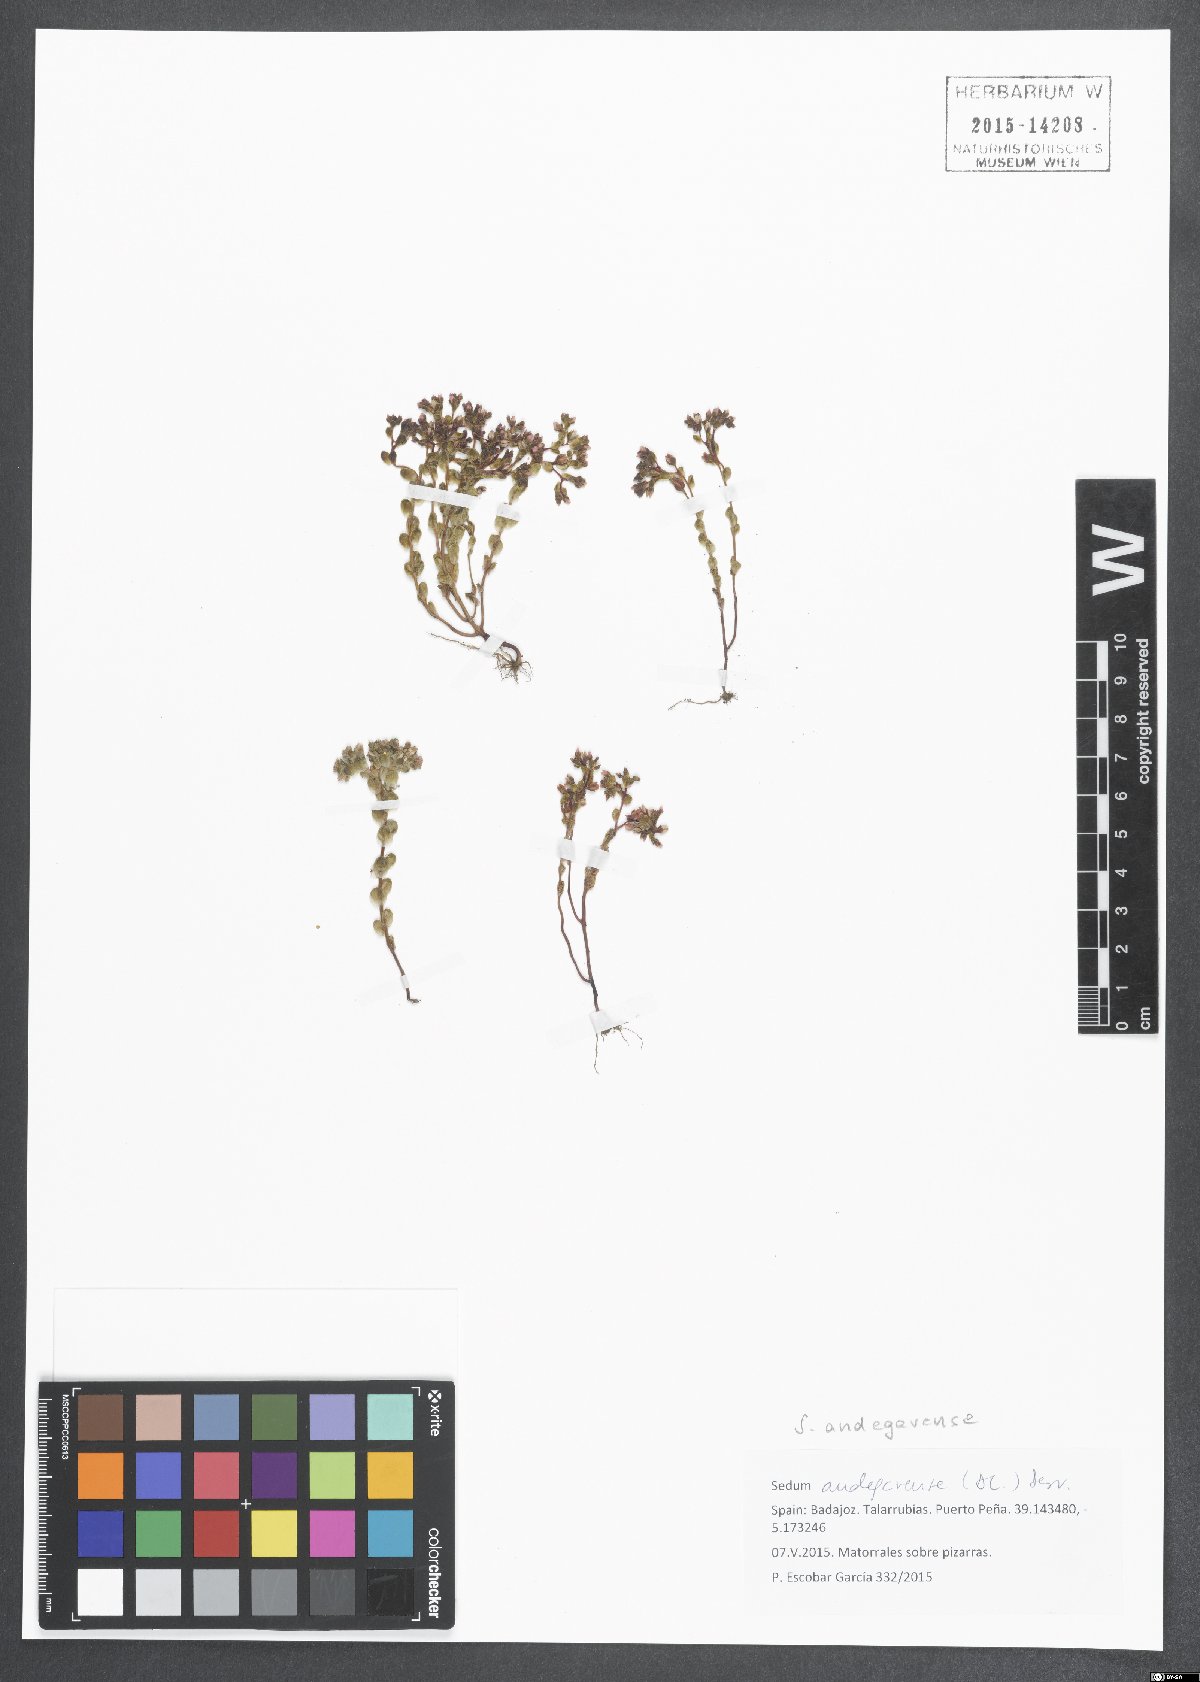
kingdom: Plantae
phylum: Tracheophyta
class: Magnoliopsida
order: Saxifragales
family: Crassulaceae
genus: Sedum
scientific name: Sedum andegavense
